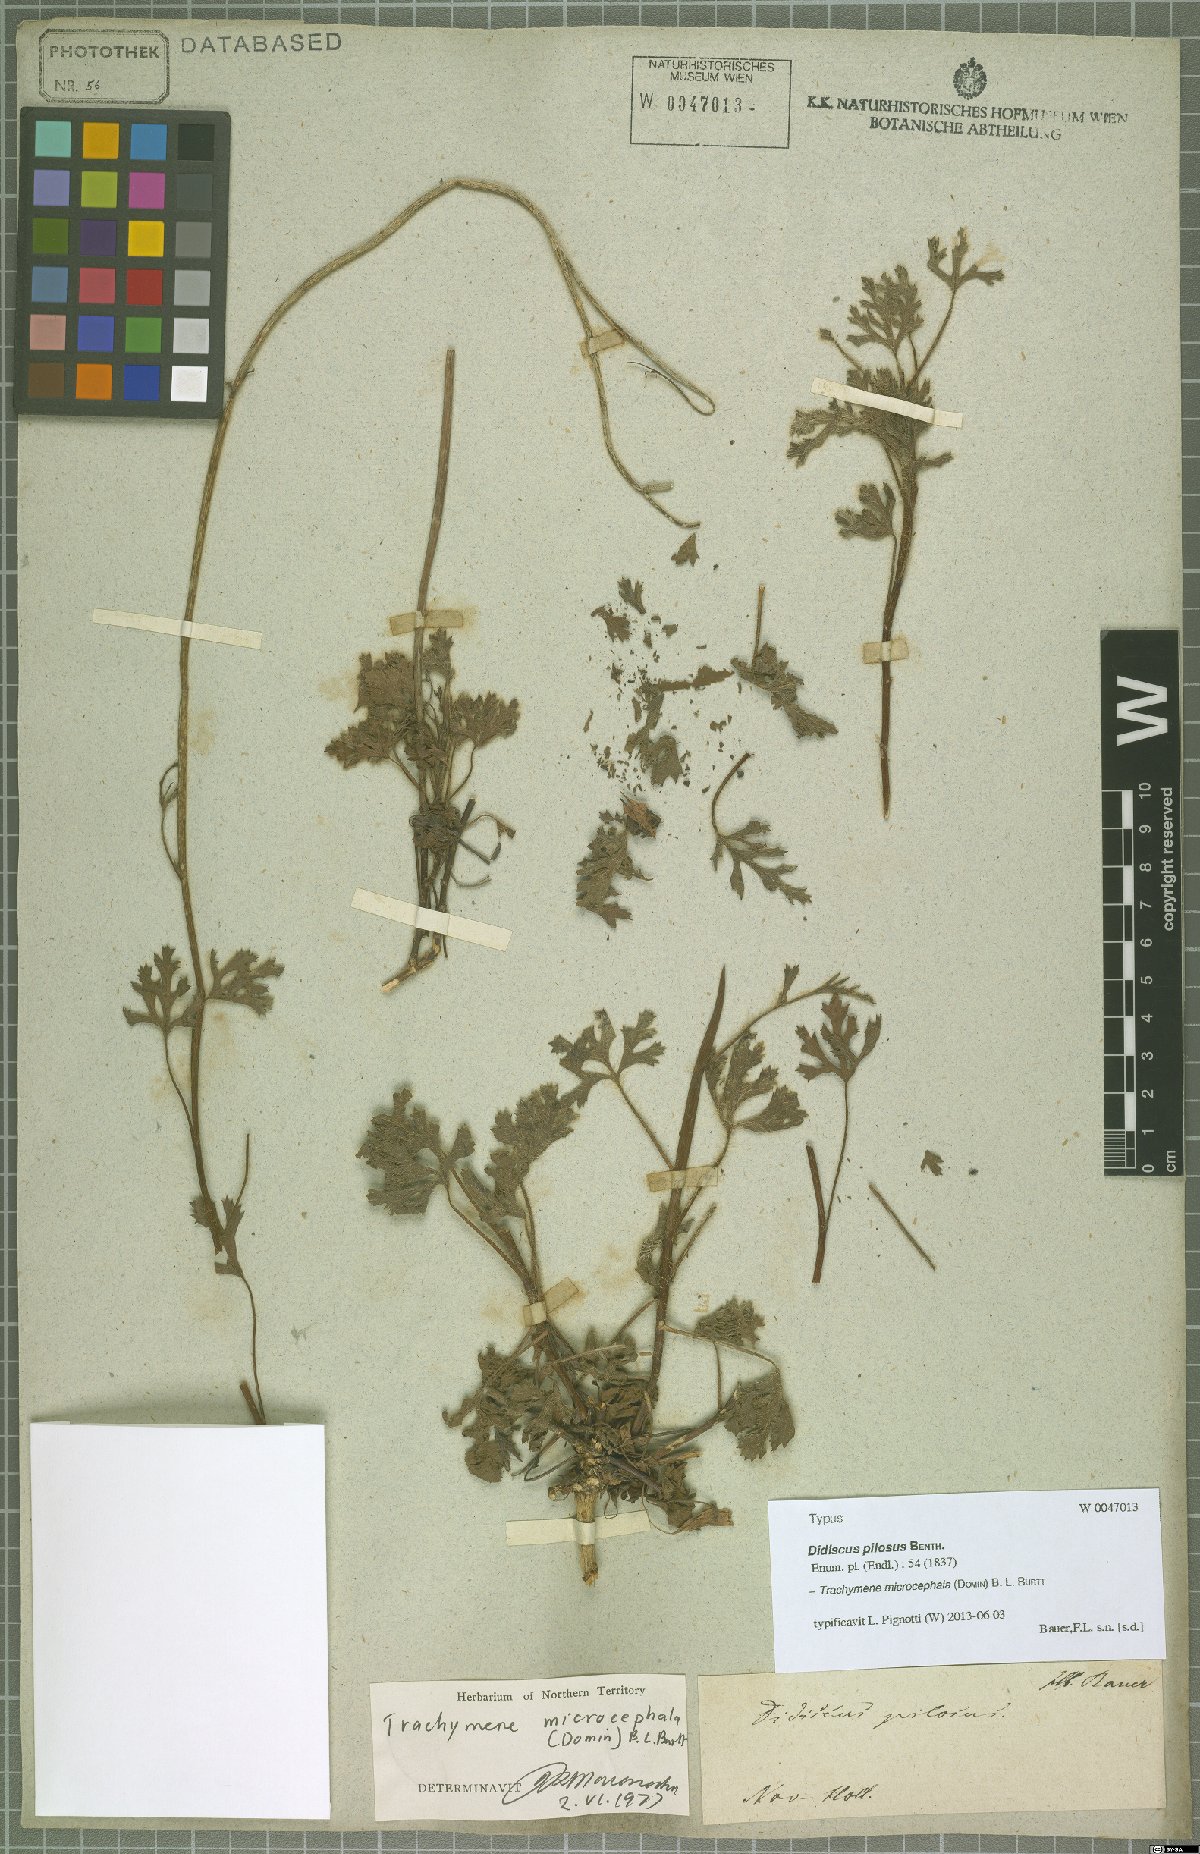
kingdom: Plantae
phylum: Tracheophyta
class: Magnoliopsida
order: Apiales
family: Araliaceae
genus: Trachymene
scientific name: Trachymene microcephala
